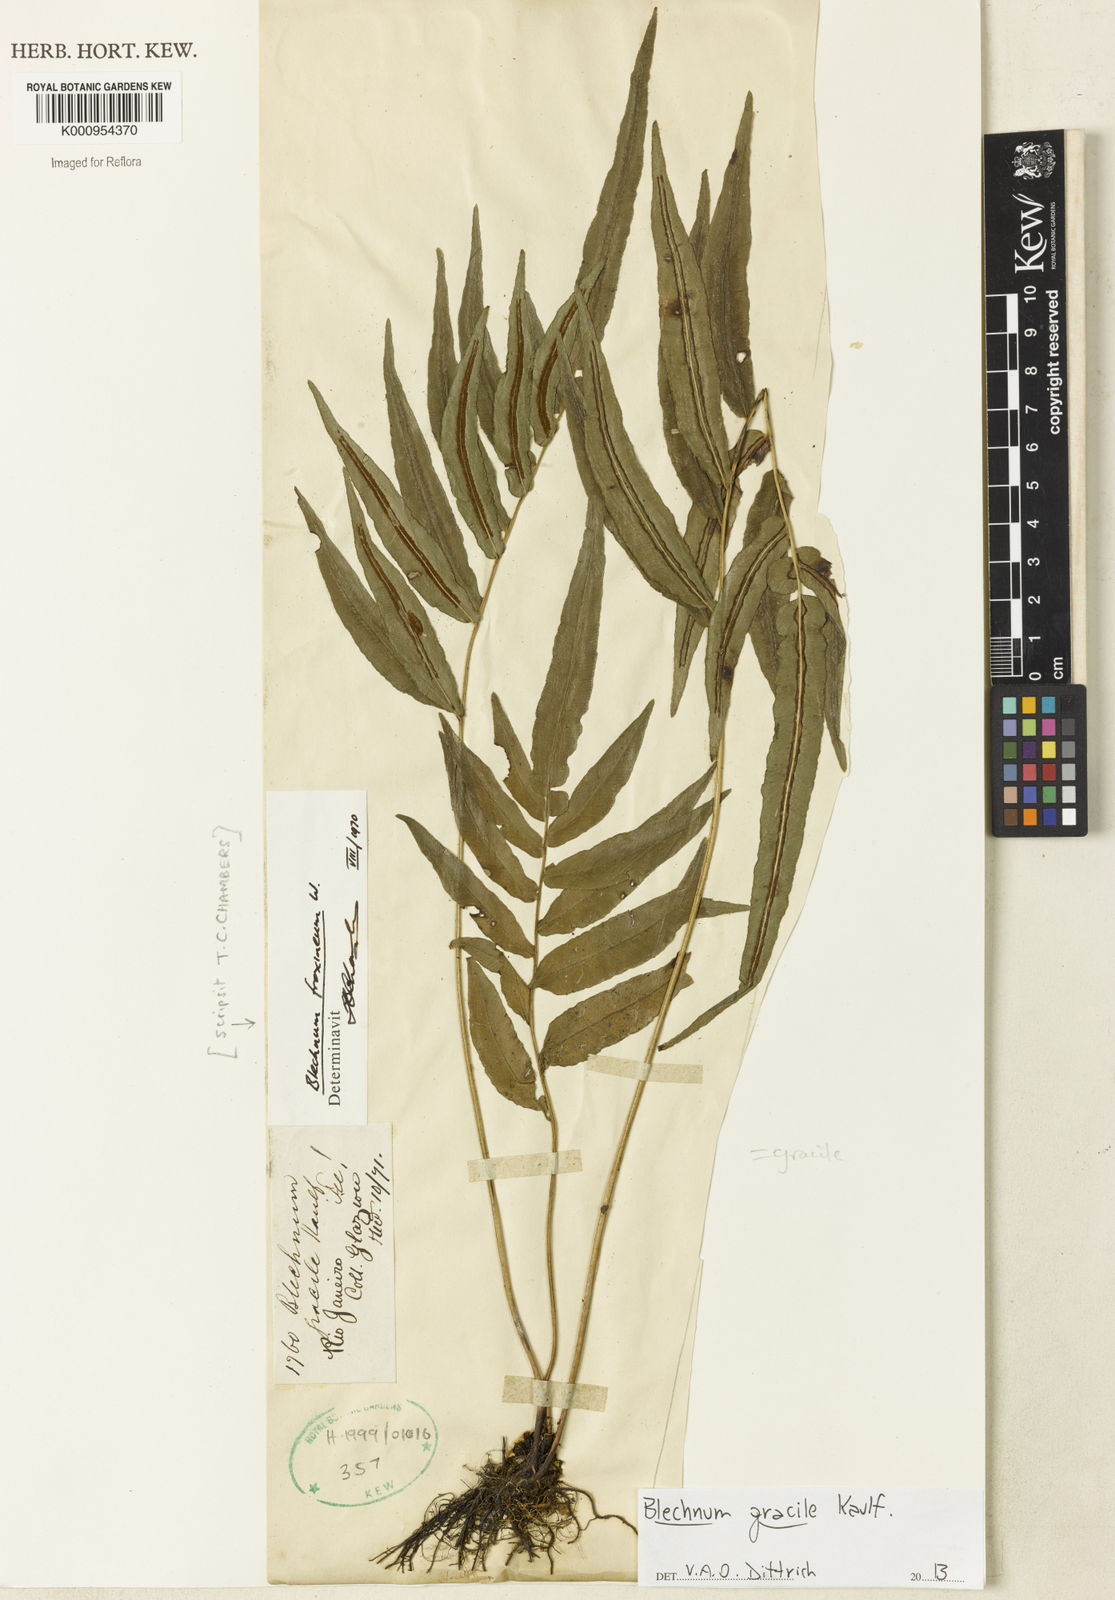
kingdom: Plantae
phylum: Tracheophyta
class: Polypodiopsida
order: Polypodiales
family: Blechnaceae
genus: Blechnum
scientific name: Blechnum gracile
